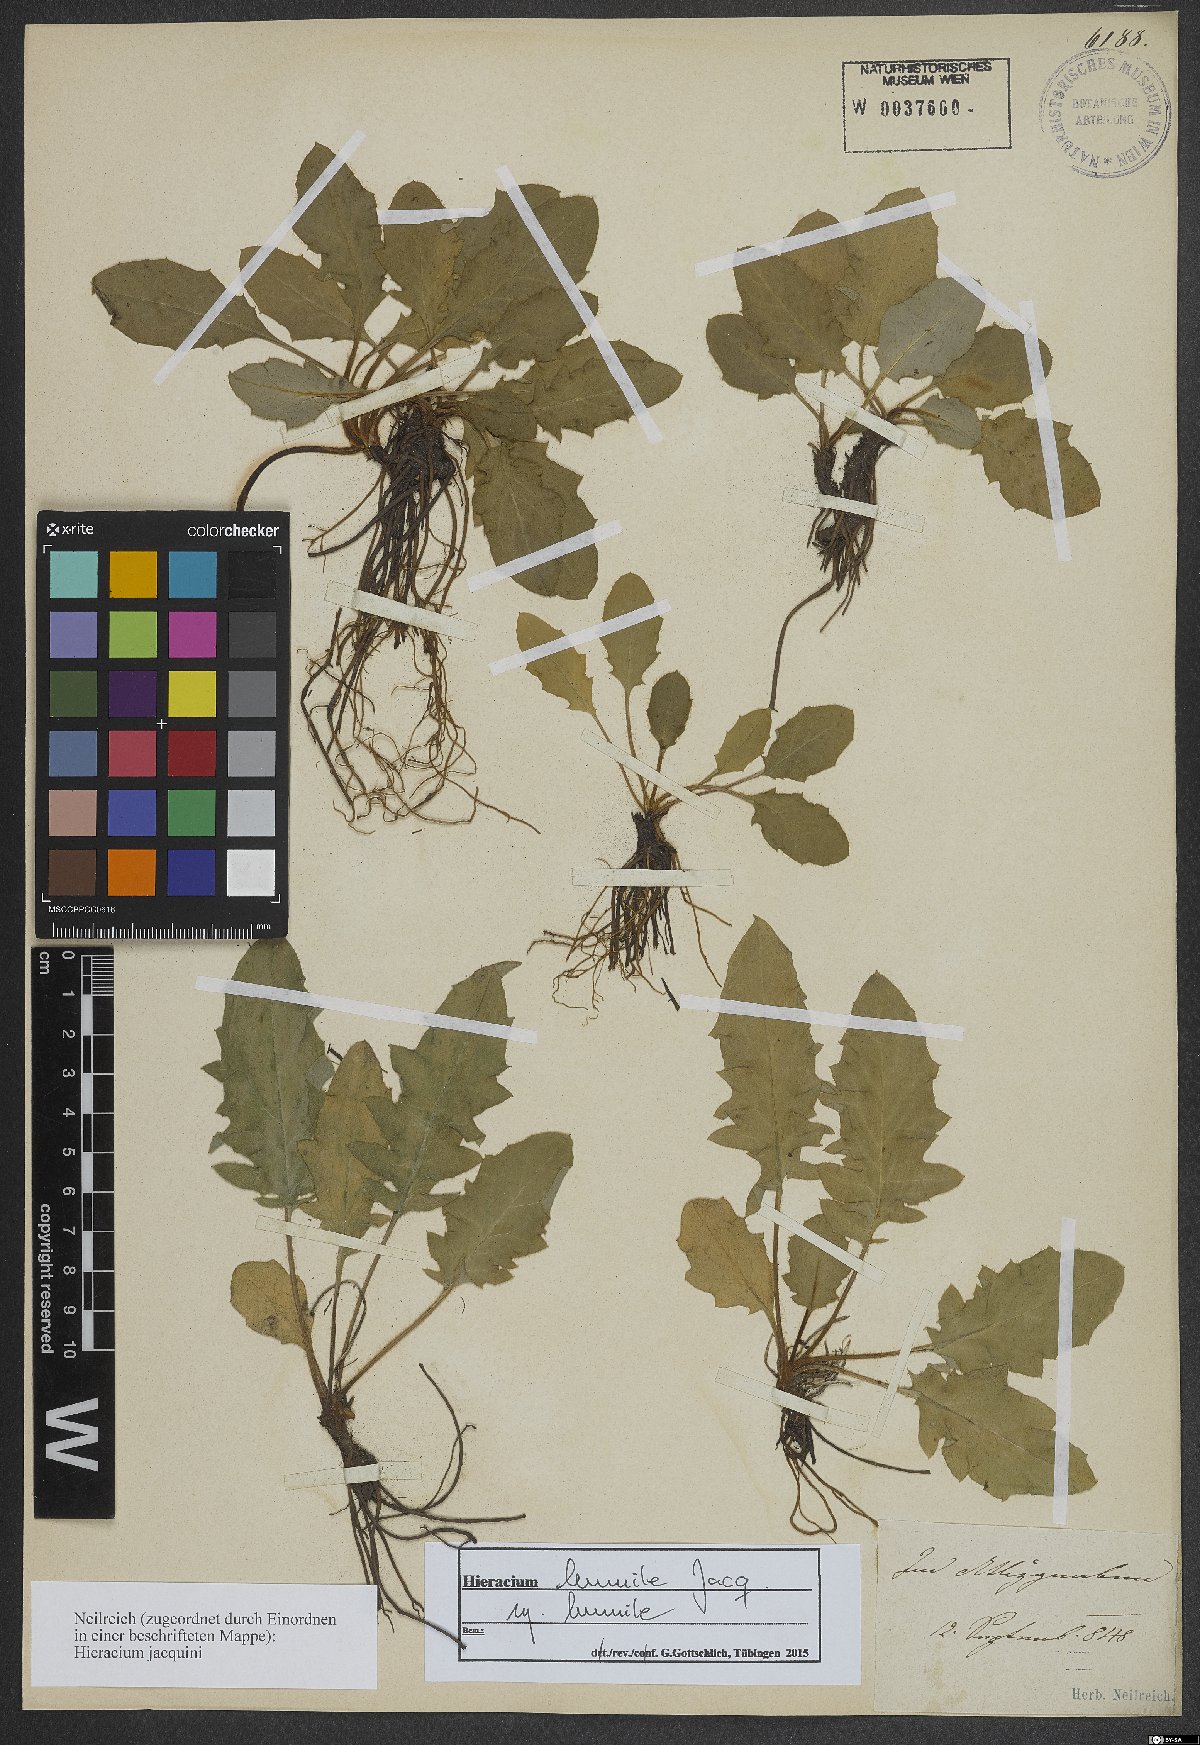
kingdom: Plantae
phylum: Tracheophyta
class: Magnoliopsida
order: Asterales
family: Asteraceae
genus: Hieracium
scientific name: Hieracium humile
